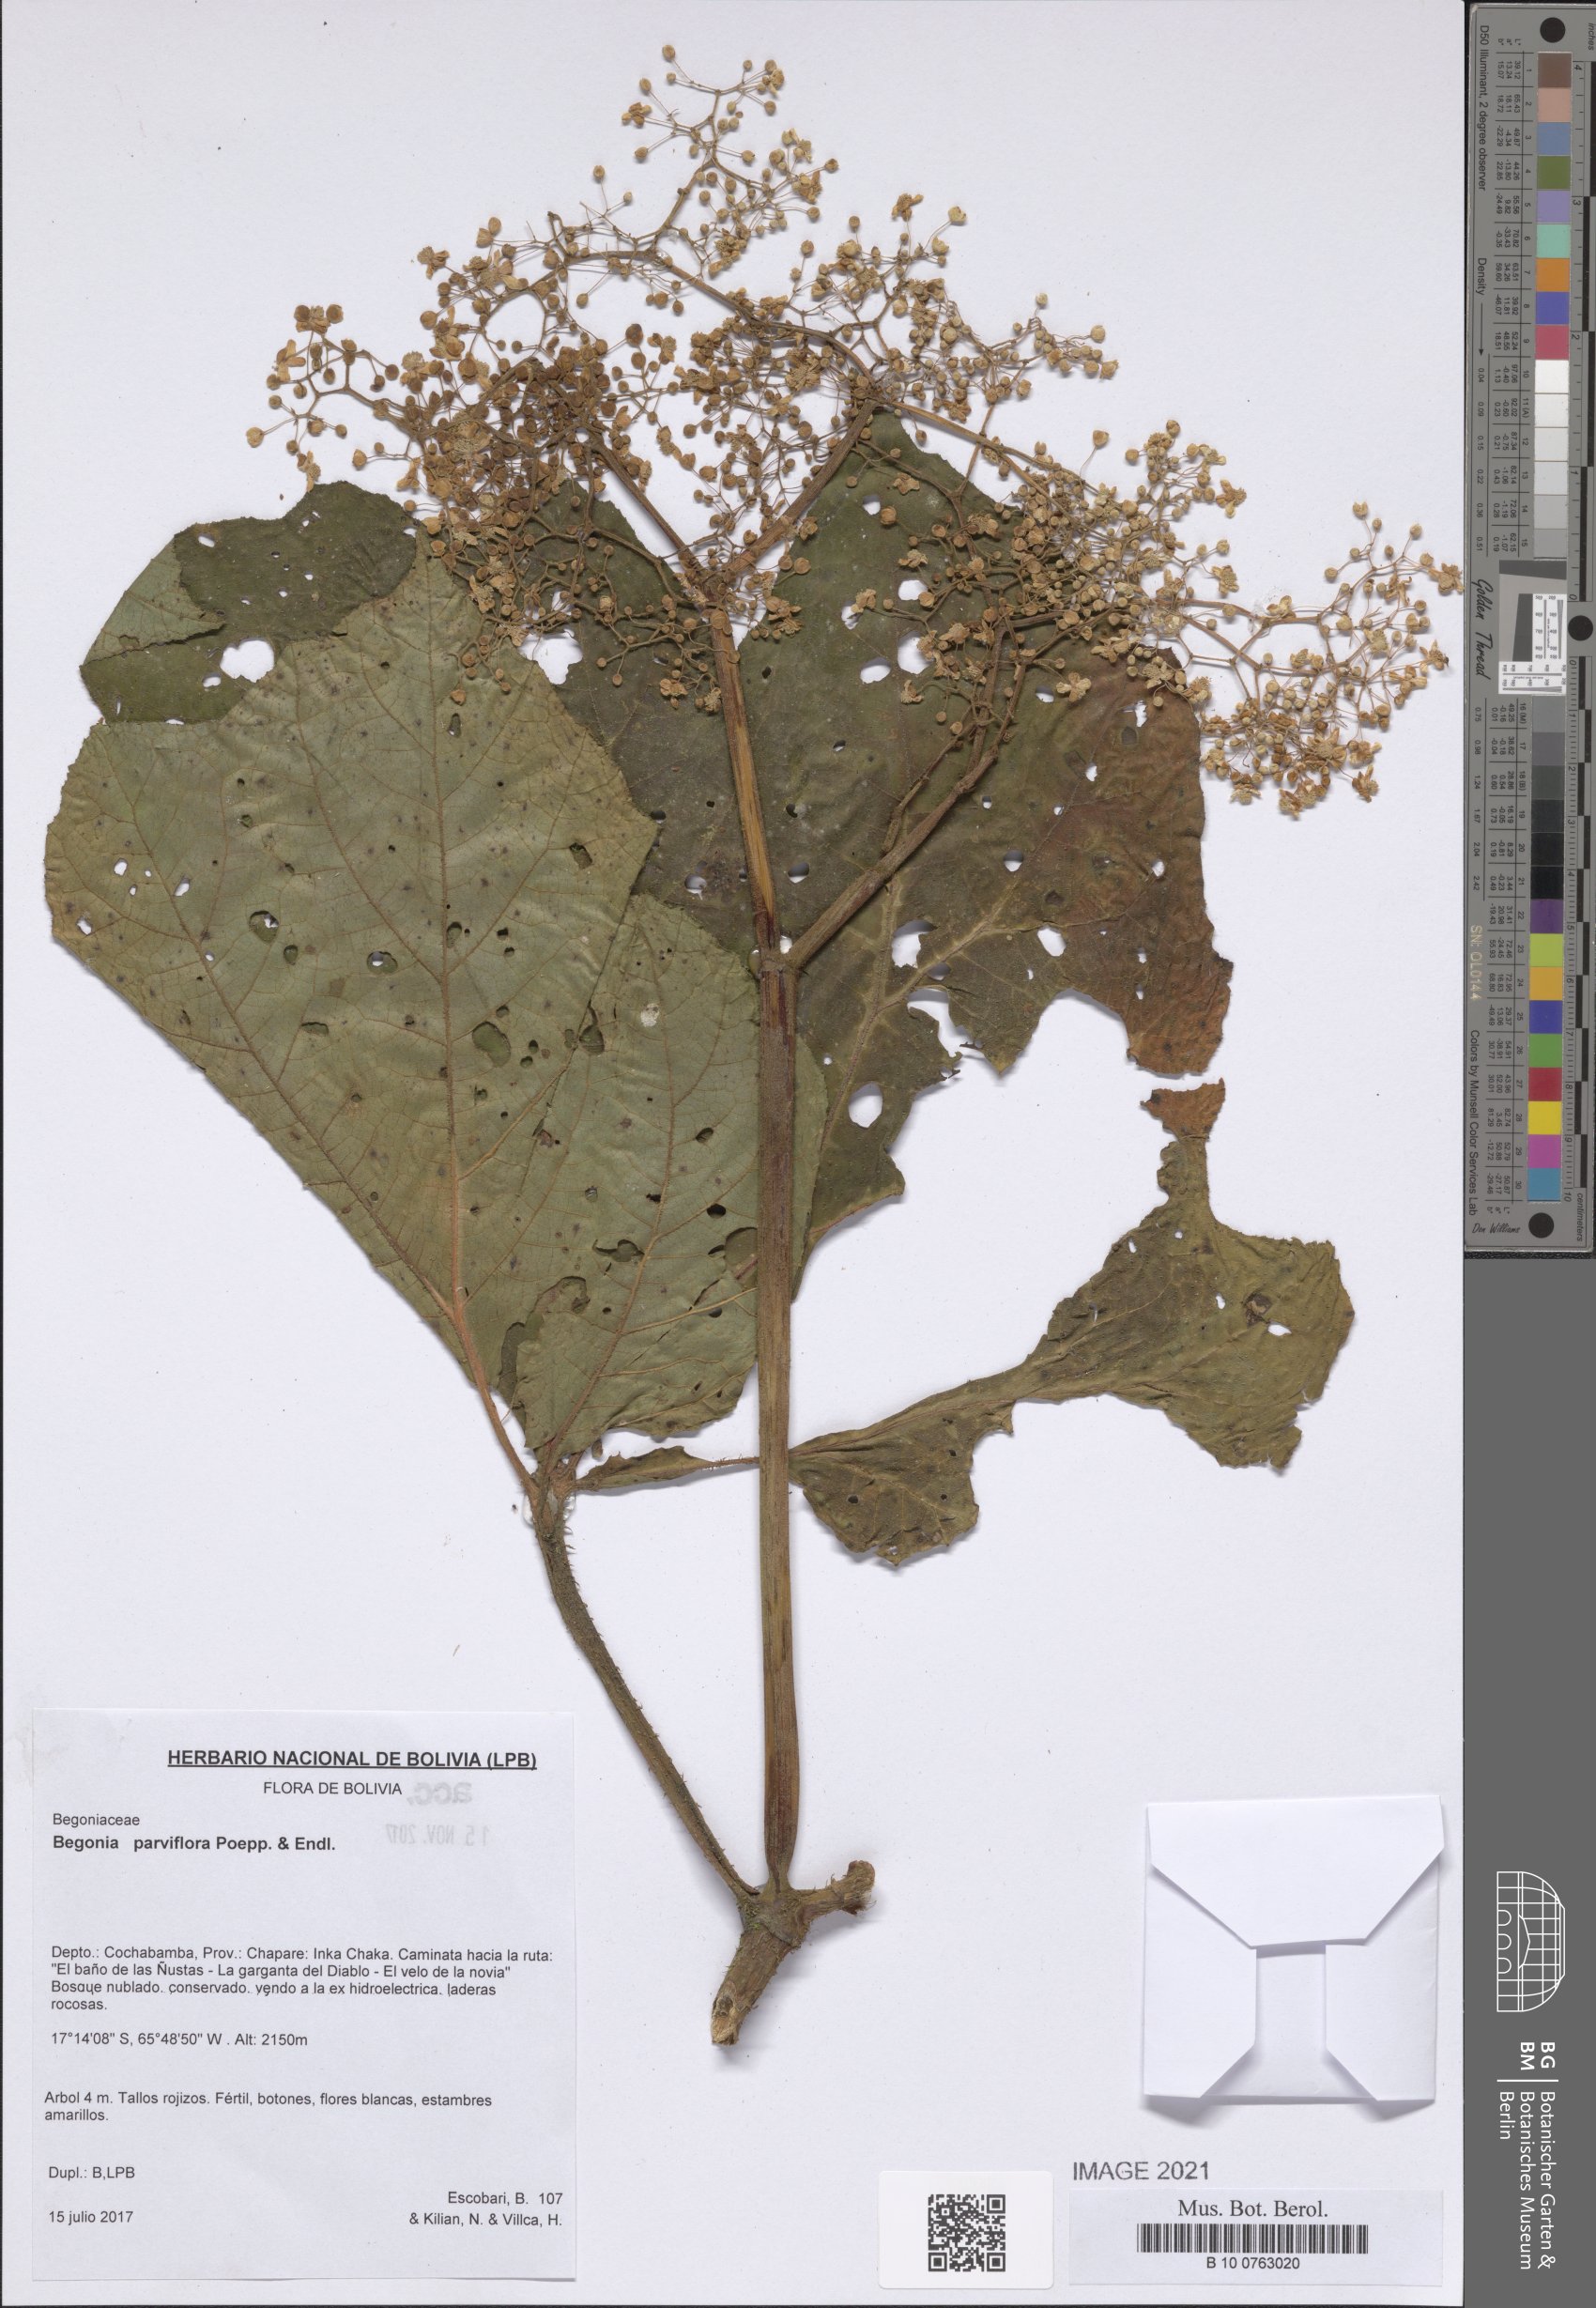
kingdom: Plantae
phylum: Tracheophyta
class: Magnoliopsida
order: Cucurbitales
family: Begoniaceae
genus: Begonia
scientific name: Begonia parviflora
